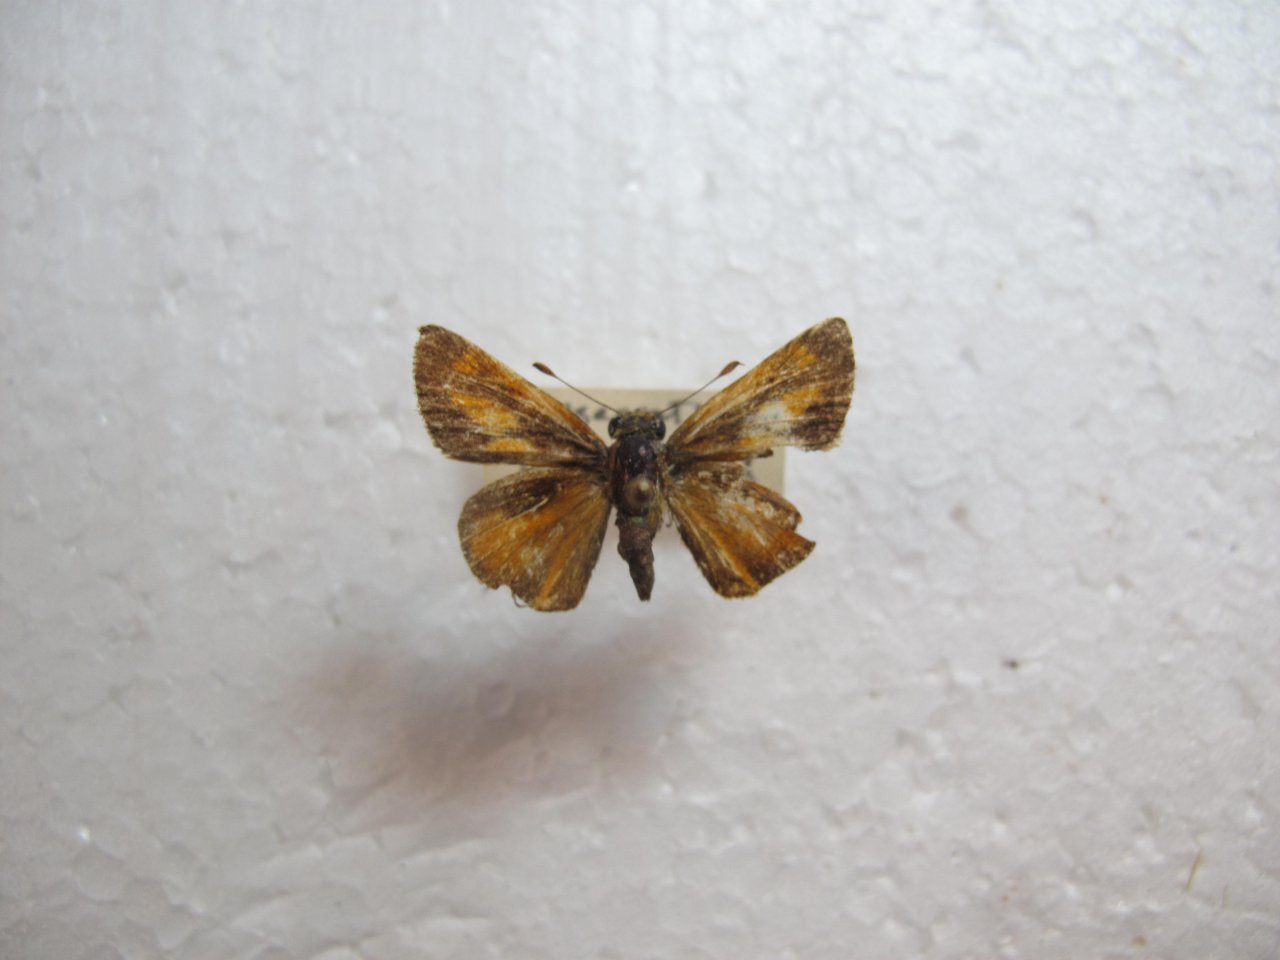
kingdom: Animalia
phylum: Arthropoda
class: Insecta
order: Lepidoptera
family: Hesperiidae
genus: Polites
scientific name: Polites
